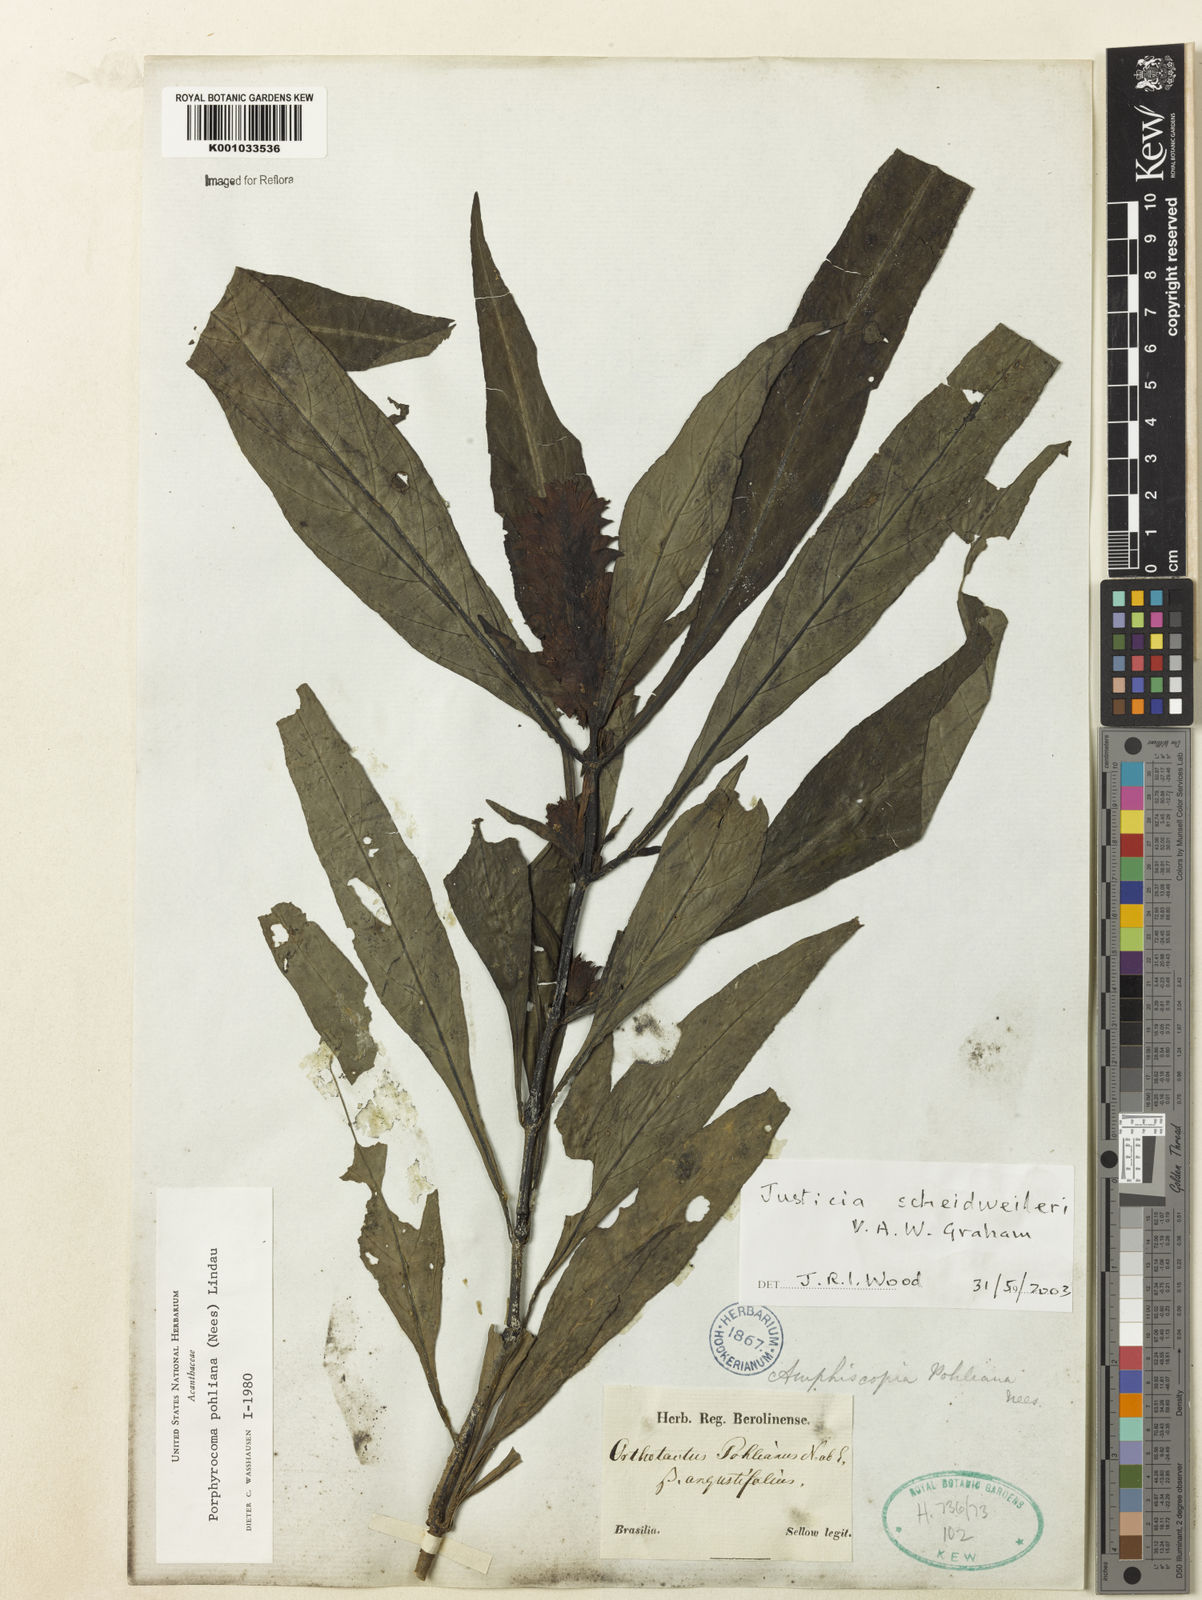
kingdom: Plantae
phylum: Tracheophyta
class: Magnoliopsida
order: Lamiales
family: Acanthaceae
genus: Justicia
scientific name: Justicia scheidweileri
